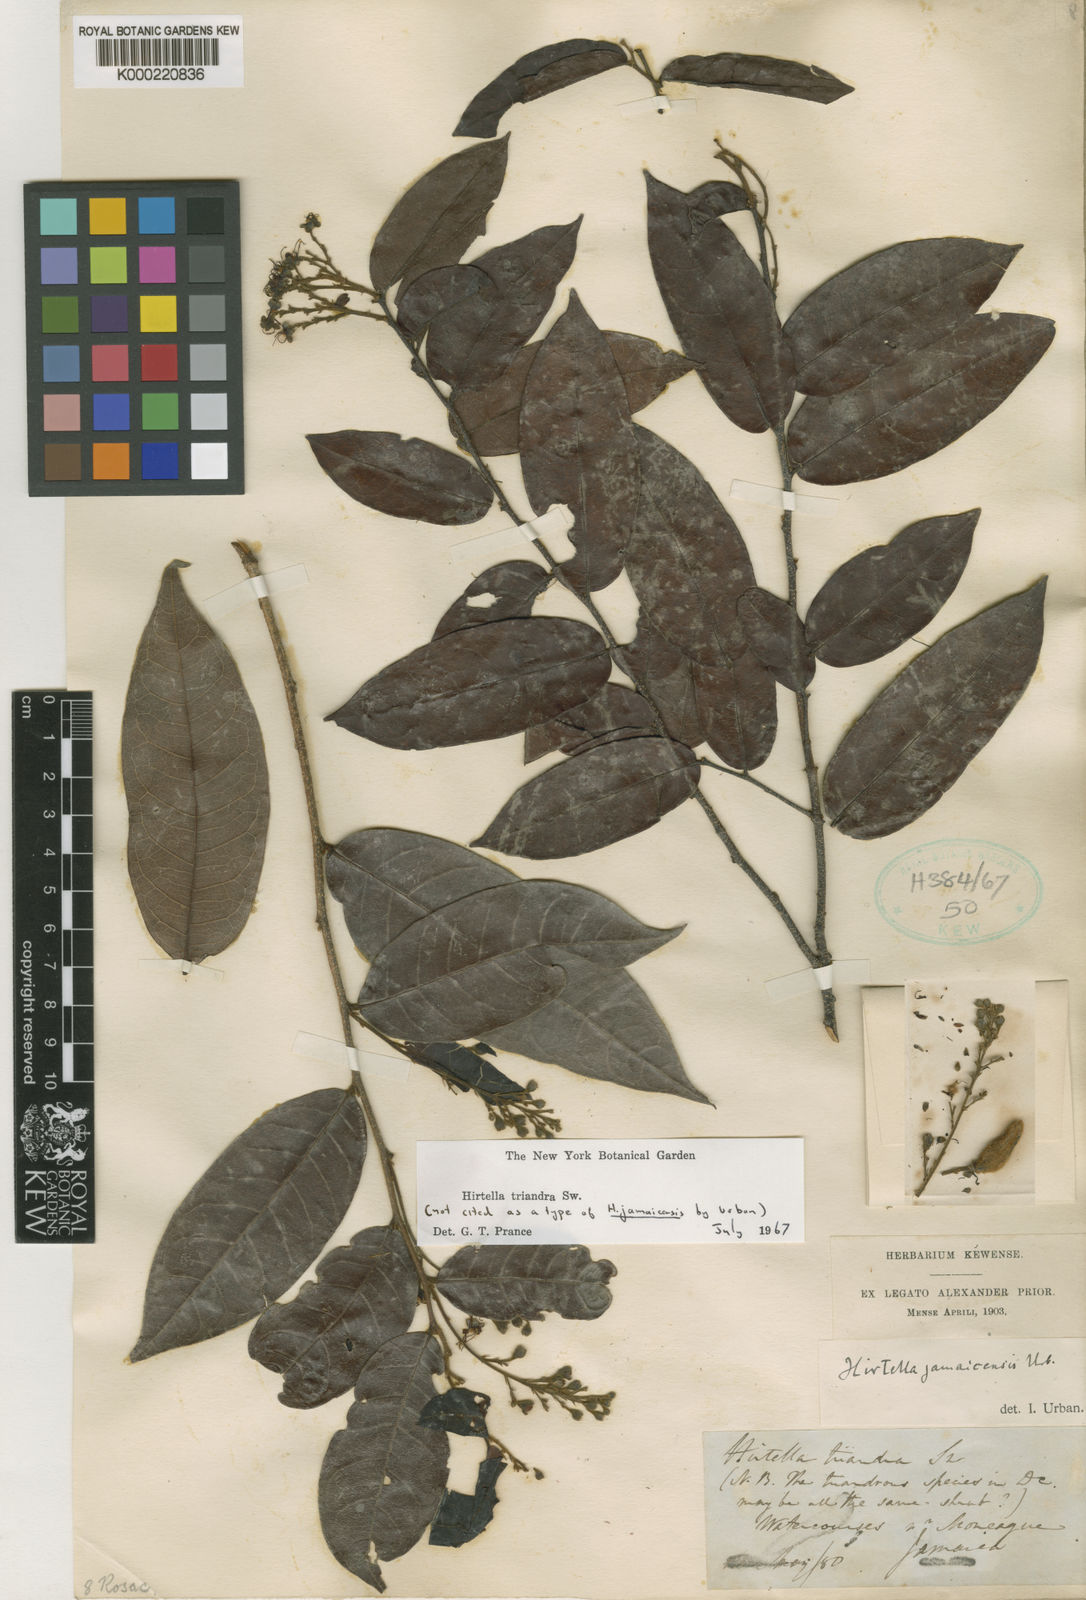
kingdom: Plantae
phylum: Tracheophyta
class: Magnoliopsida
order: Malpighiales
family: Chrysobalanaceae
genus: Hirtella
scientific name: Hirtella triandra
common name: Hairy plum
